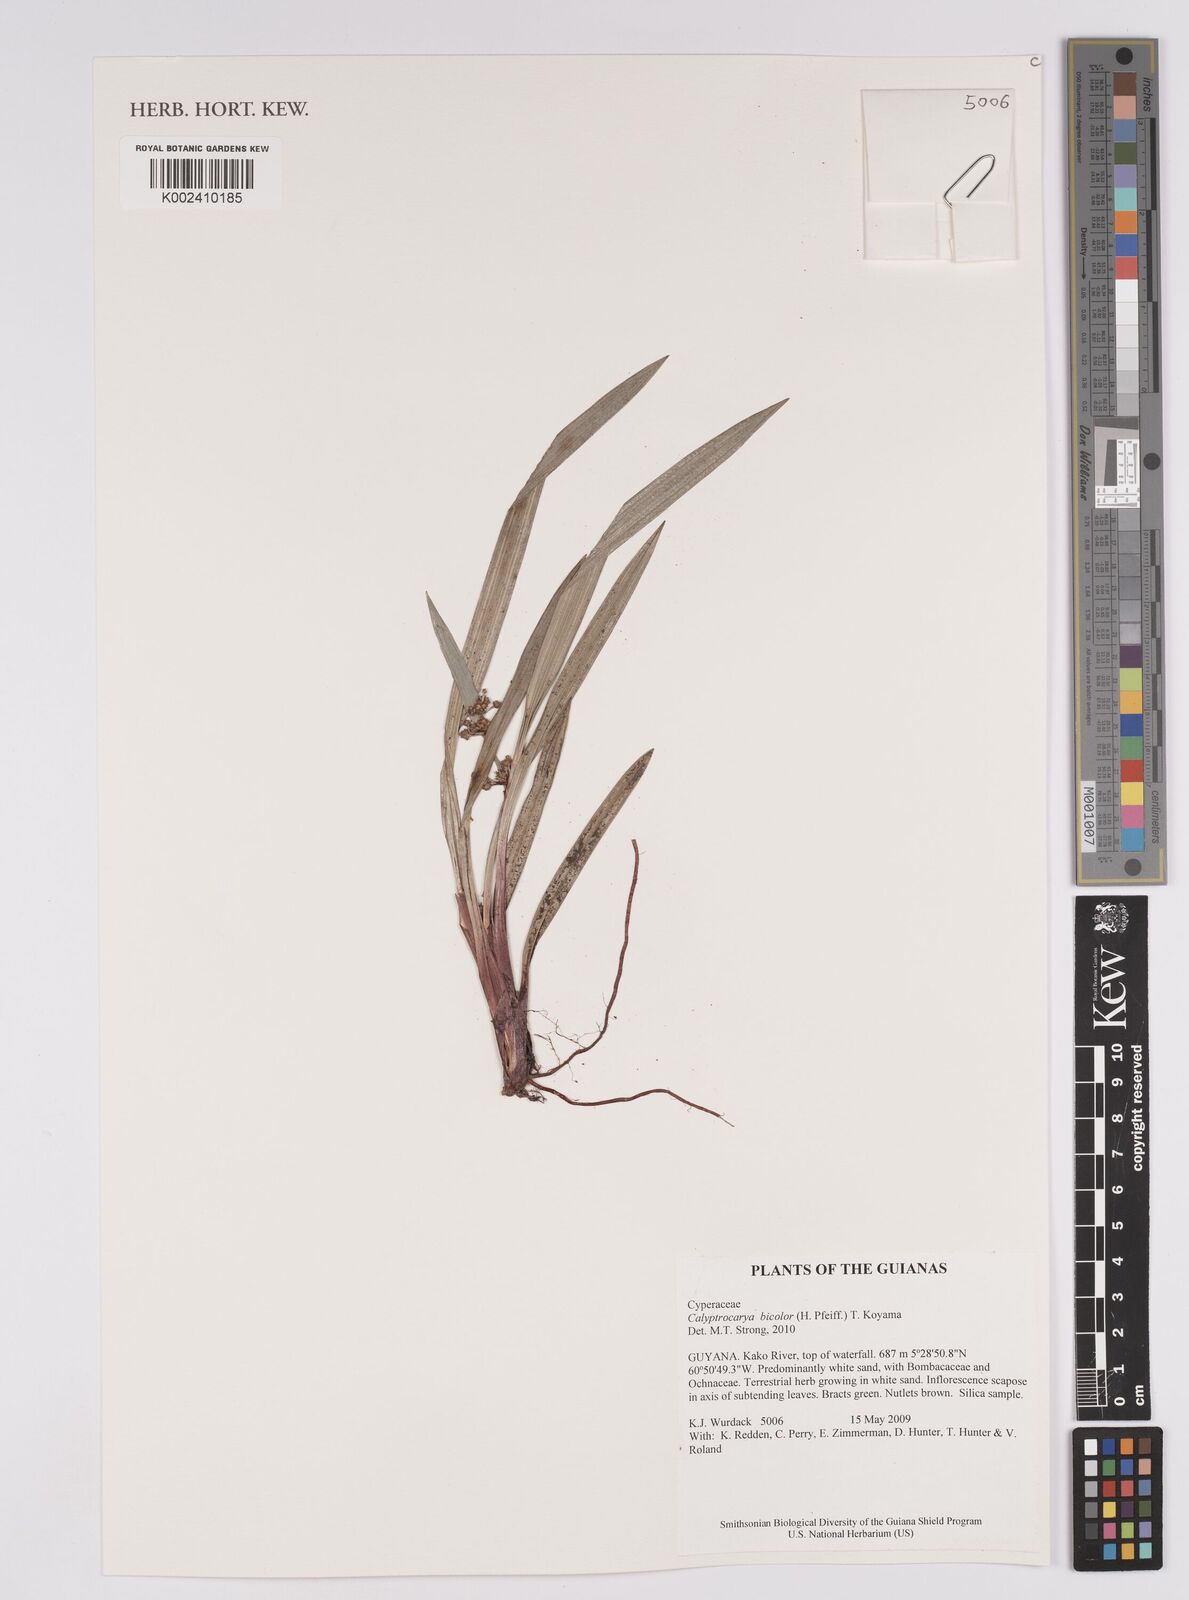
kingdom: Plantae
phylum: Tracheophyta
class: Liliopsida
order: Poales
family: Cyperaceae
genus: Calyptrocarya
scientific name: Calyptrocarya bicolor
